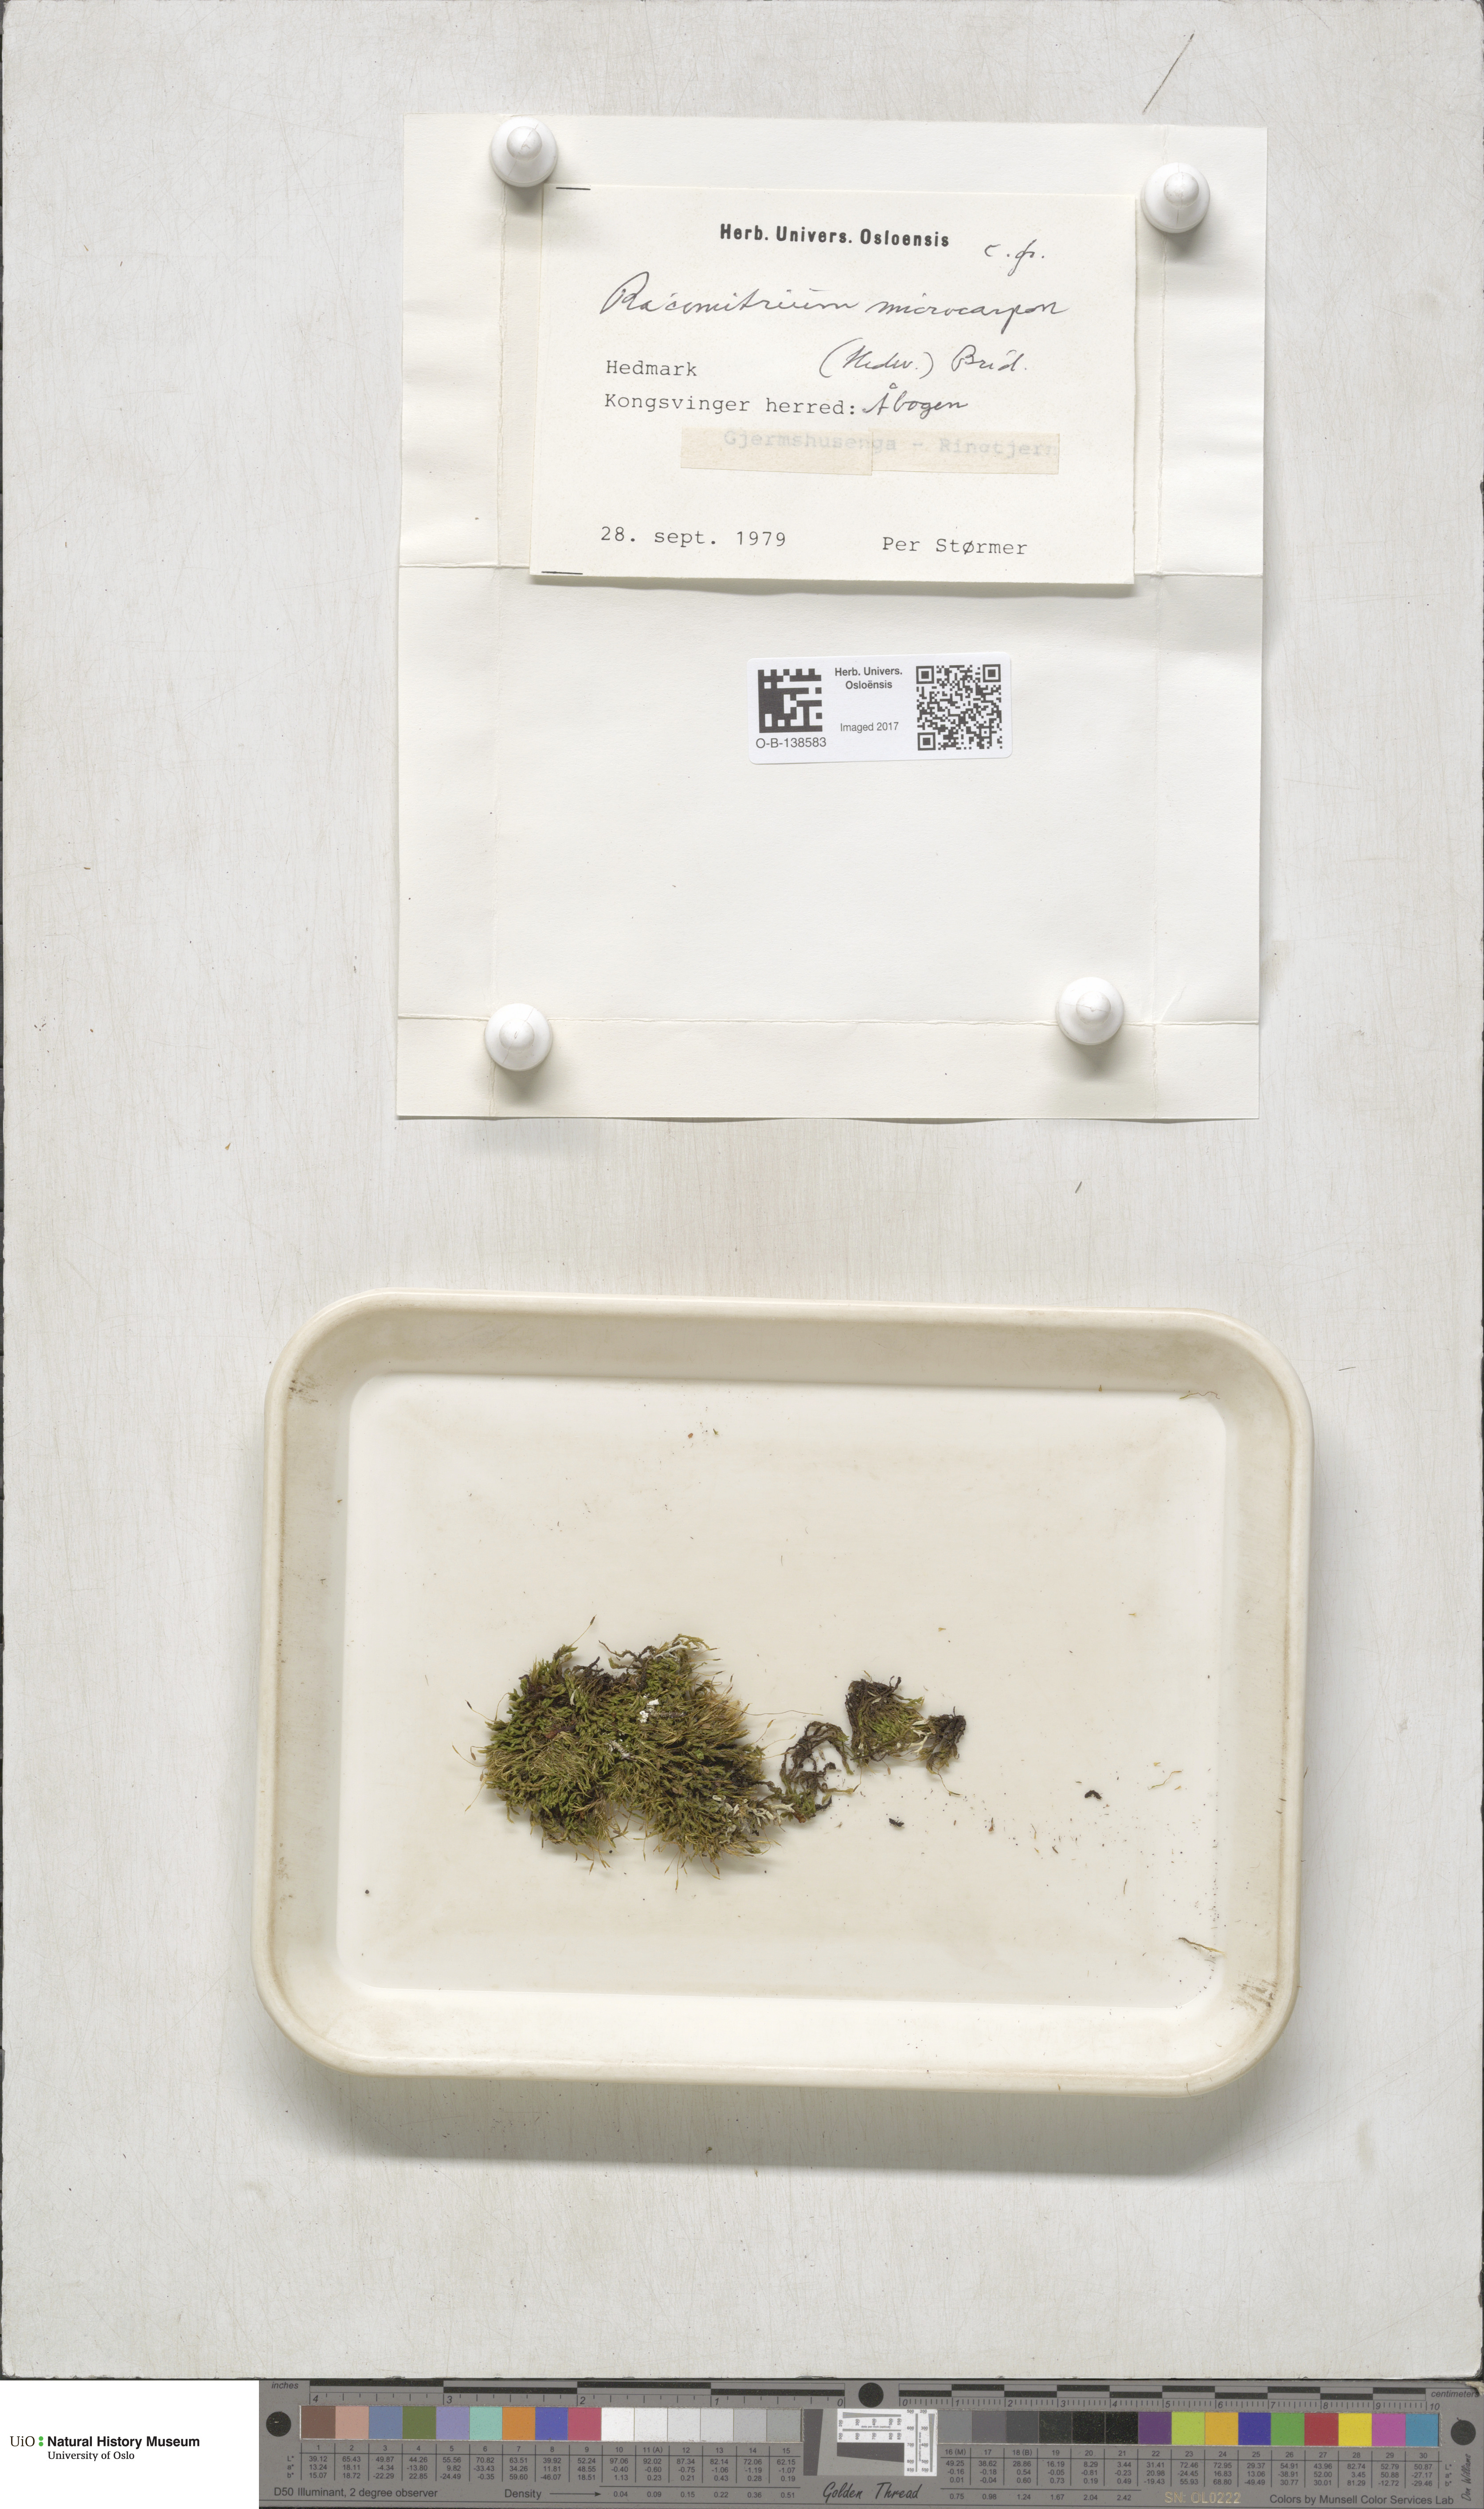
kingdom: Plantae
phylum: Bryophyta
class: Bryopsida
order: Grimmiales
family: Grimmiaceae
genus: Bucklandiella
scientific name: Bucklandiella microcarpos
